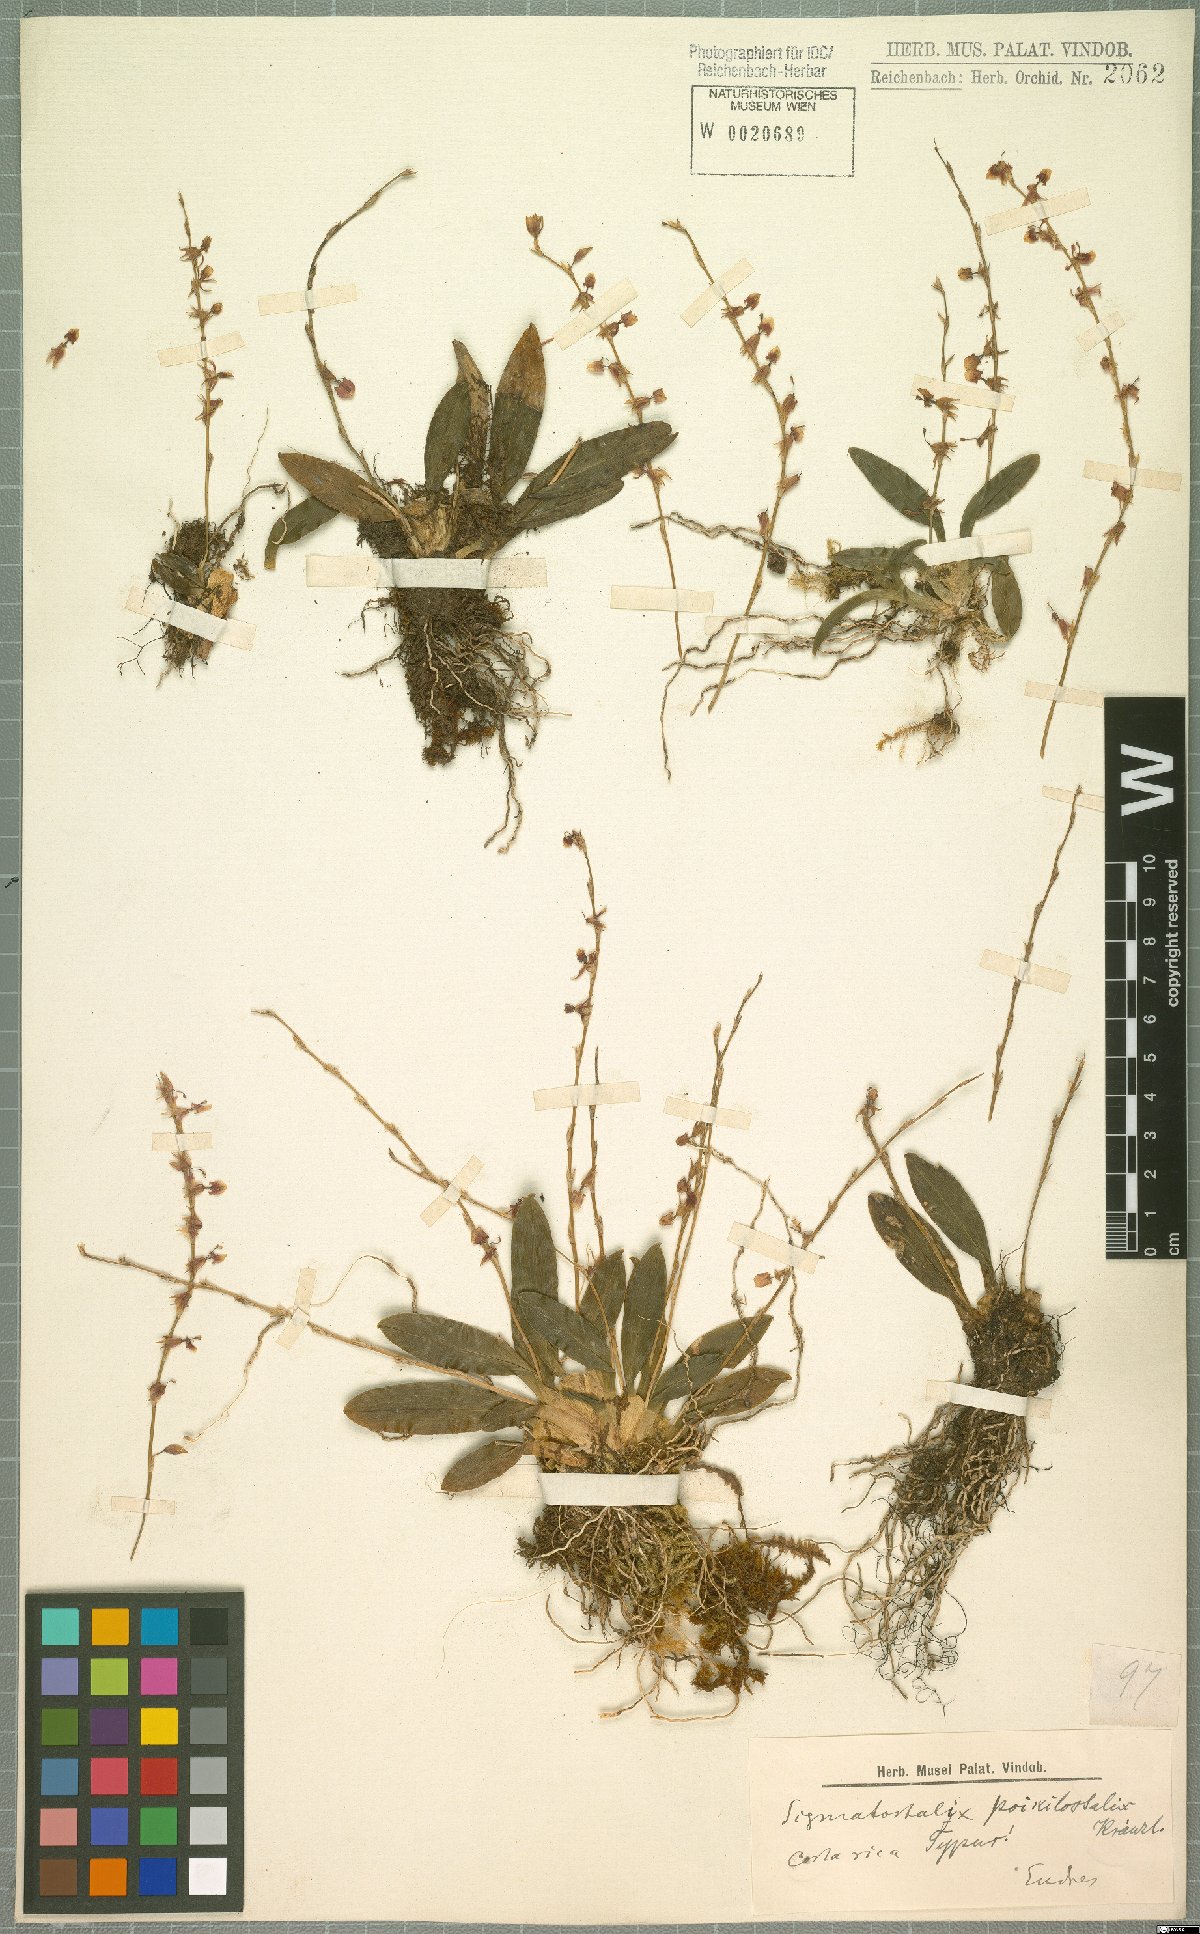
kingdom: Plantae
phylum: Tracheophyta
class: Liliopsida
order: Asparagales
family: Orchidaceae
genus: Oncidium
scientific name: Oncidium poikilostalix
